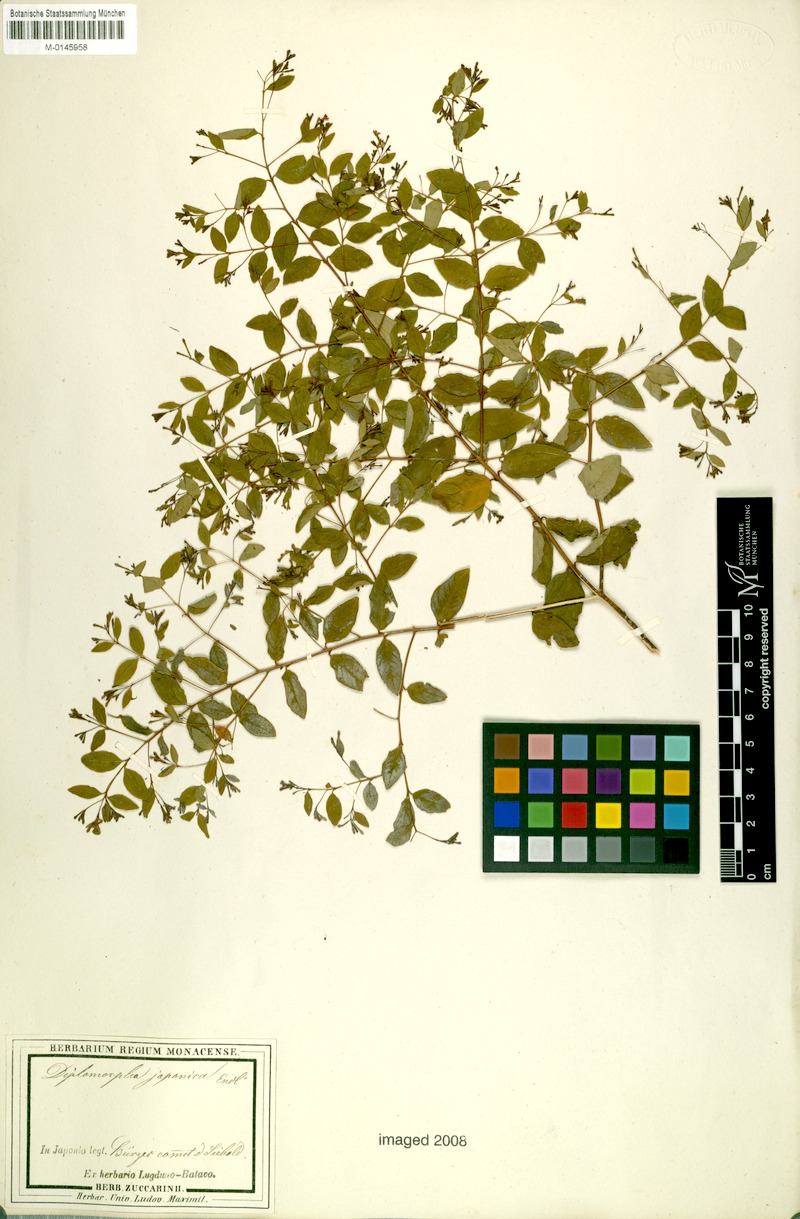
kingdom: Plantae
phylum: Tracheophyta
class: Magnoliopsida
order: Malvales
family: Thymelaeaceae
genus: Wikstroemia
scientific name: Wikstroemia trichotoma
